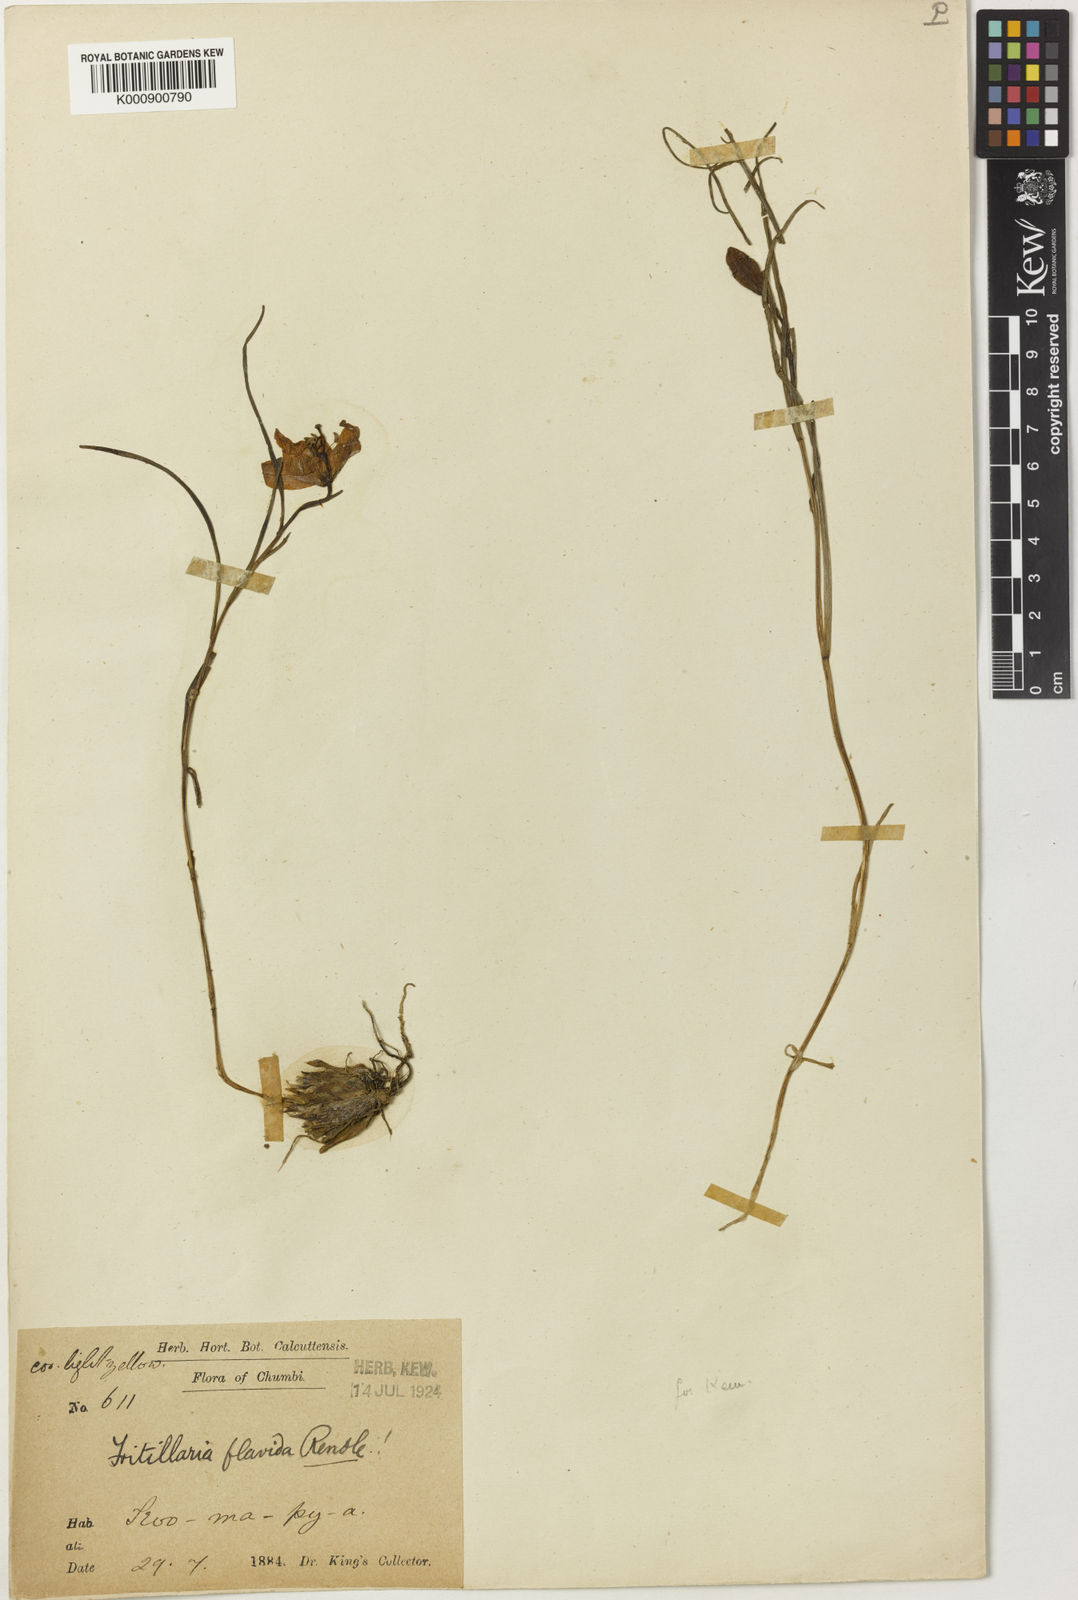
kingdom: Plantae
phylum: Tracheophyta
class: Liliopsida
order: Liliales
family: Liliaceae
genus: Lilium
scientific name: Lilium nanum
